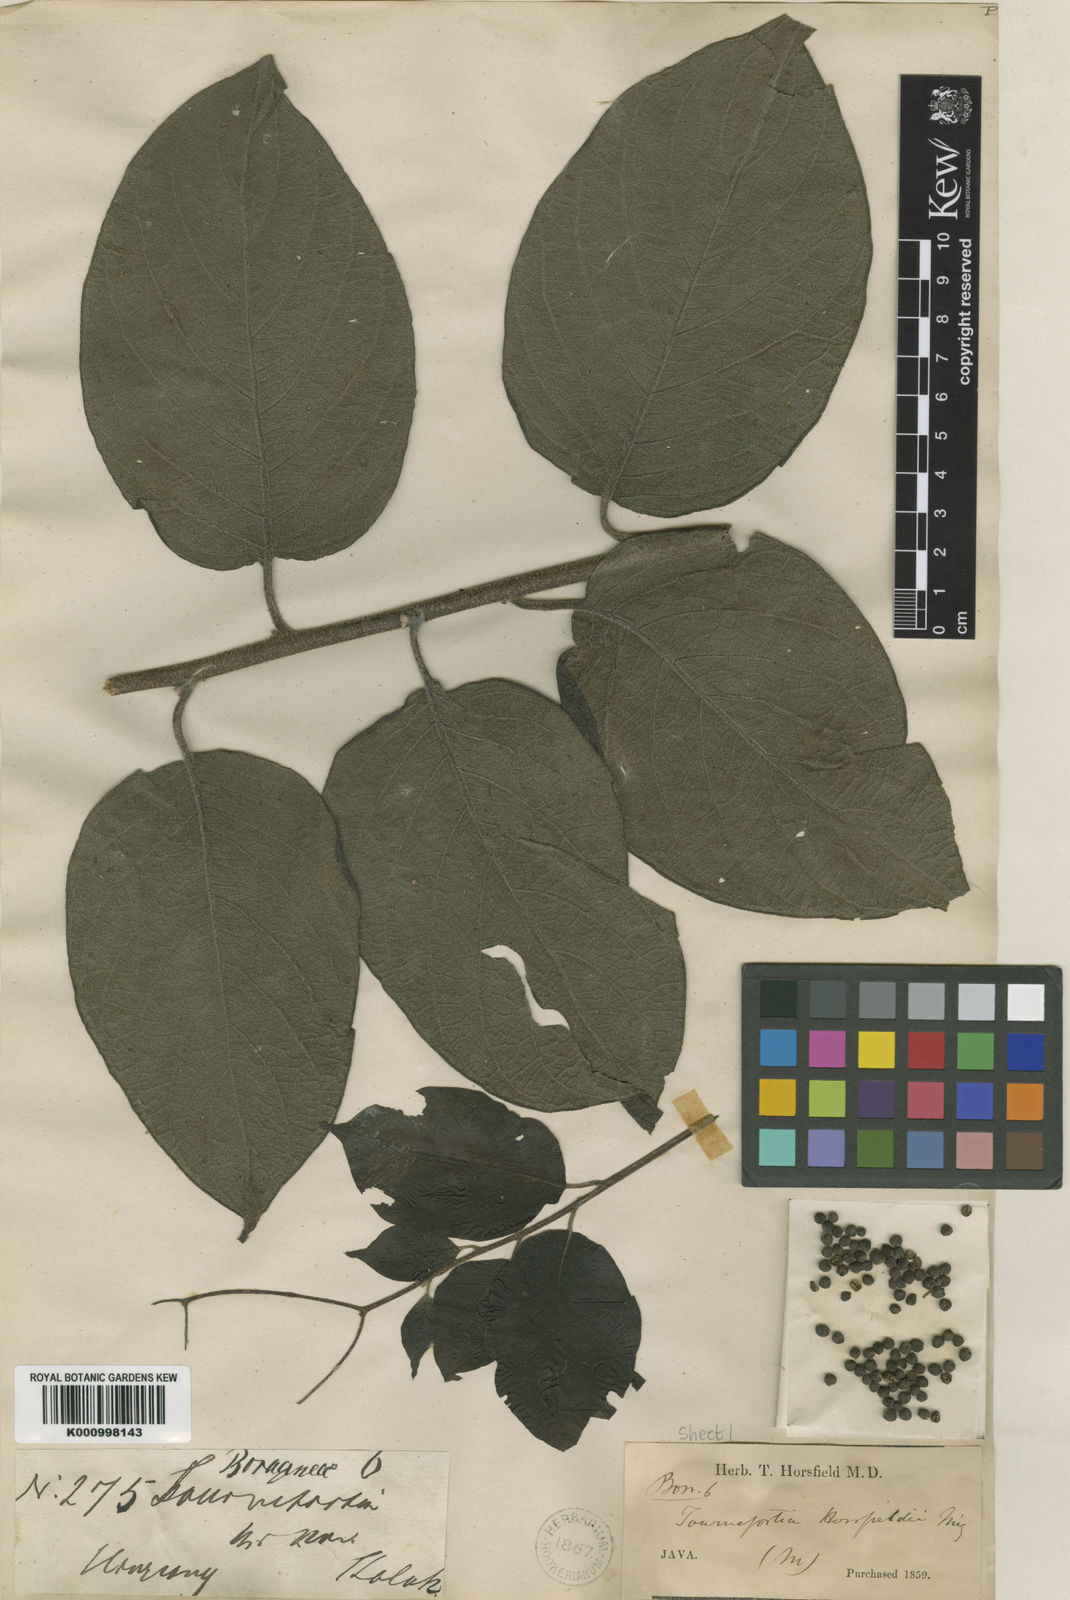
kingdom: Plantae
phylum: Tracheophyta
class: Magnoliopsida
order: Boraginales
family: Heliotropiaceae
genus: Heliotropium
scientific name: Heliotropium sarmentosum
